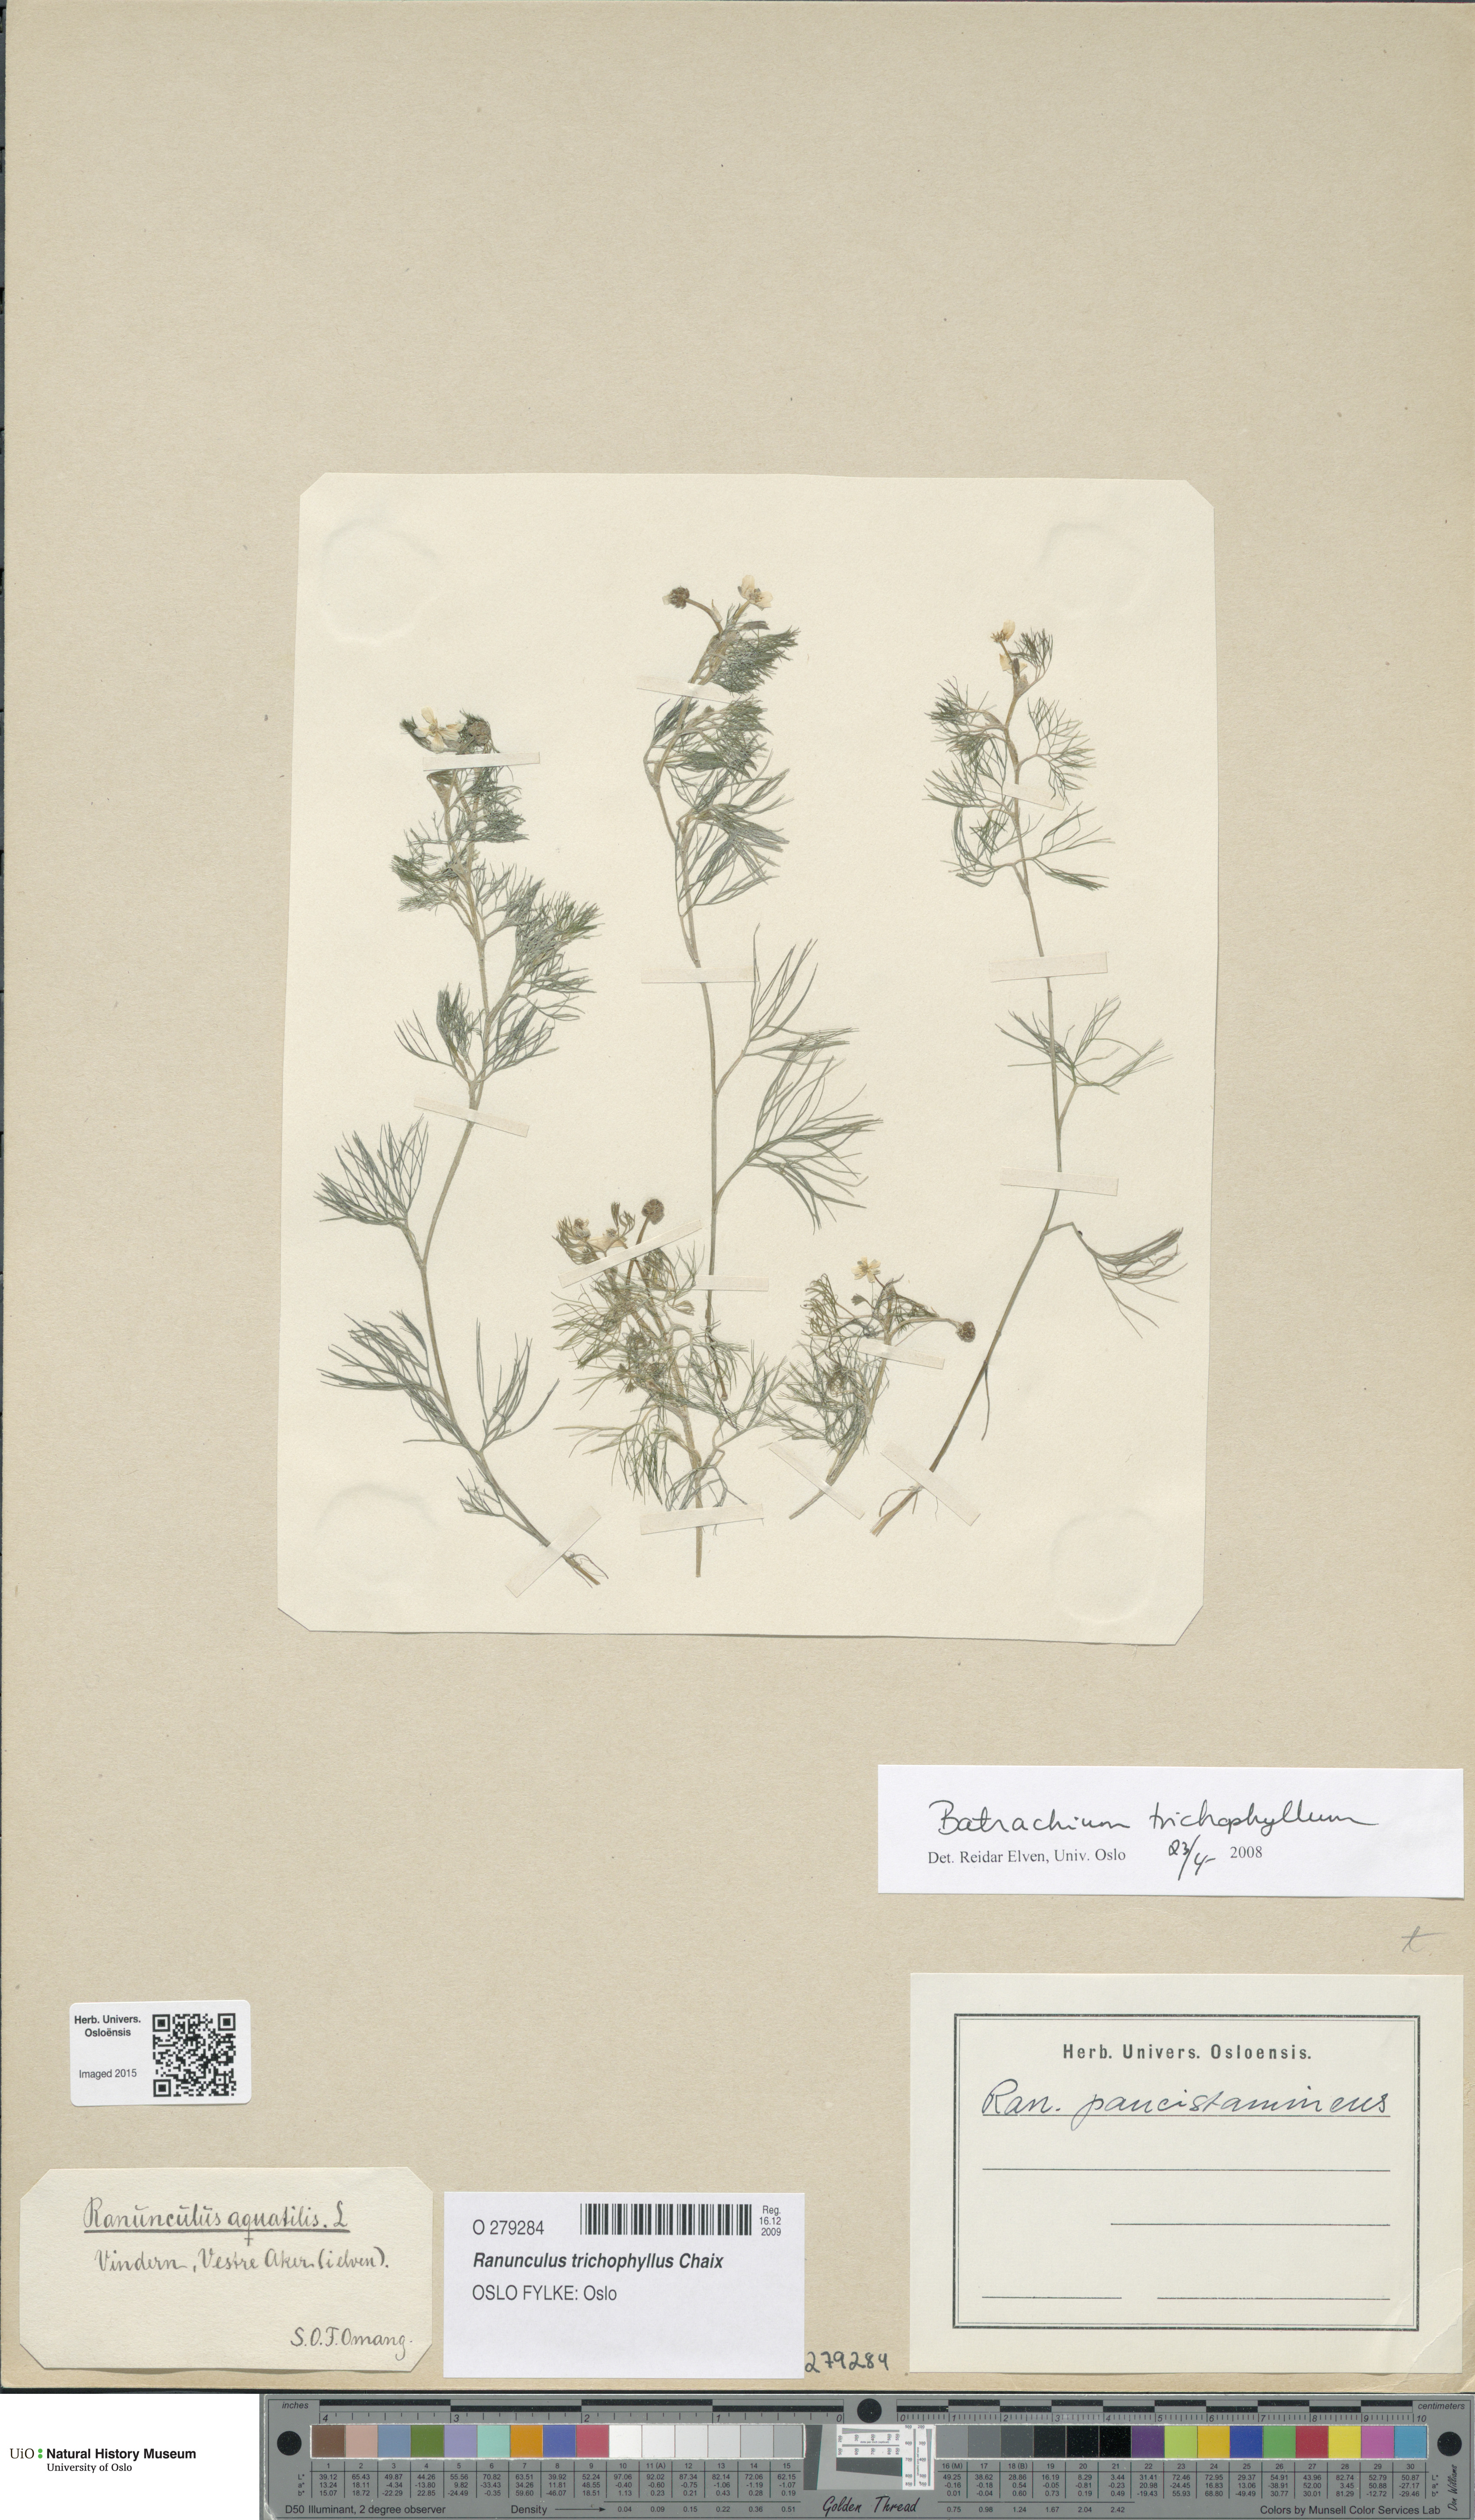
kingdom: Plantae
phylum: Tracheophyta
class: Magnoliopsida
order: Ranunculales
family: Ranunculaceae
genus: Ranunculus
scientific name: Ranunculus trichophyllus
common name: Thread-leaved water-crowfoot
